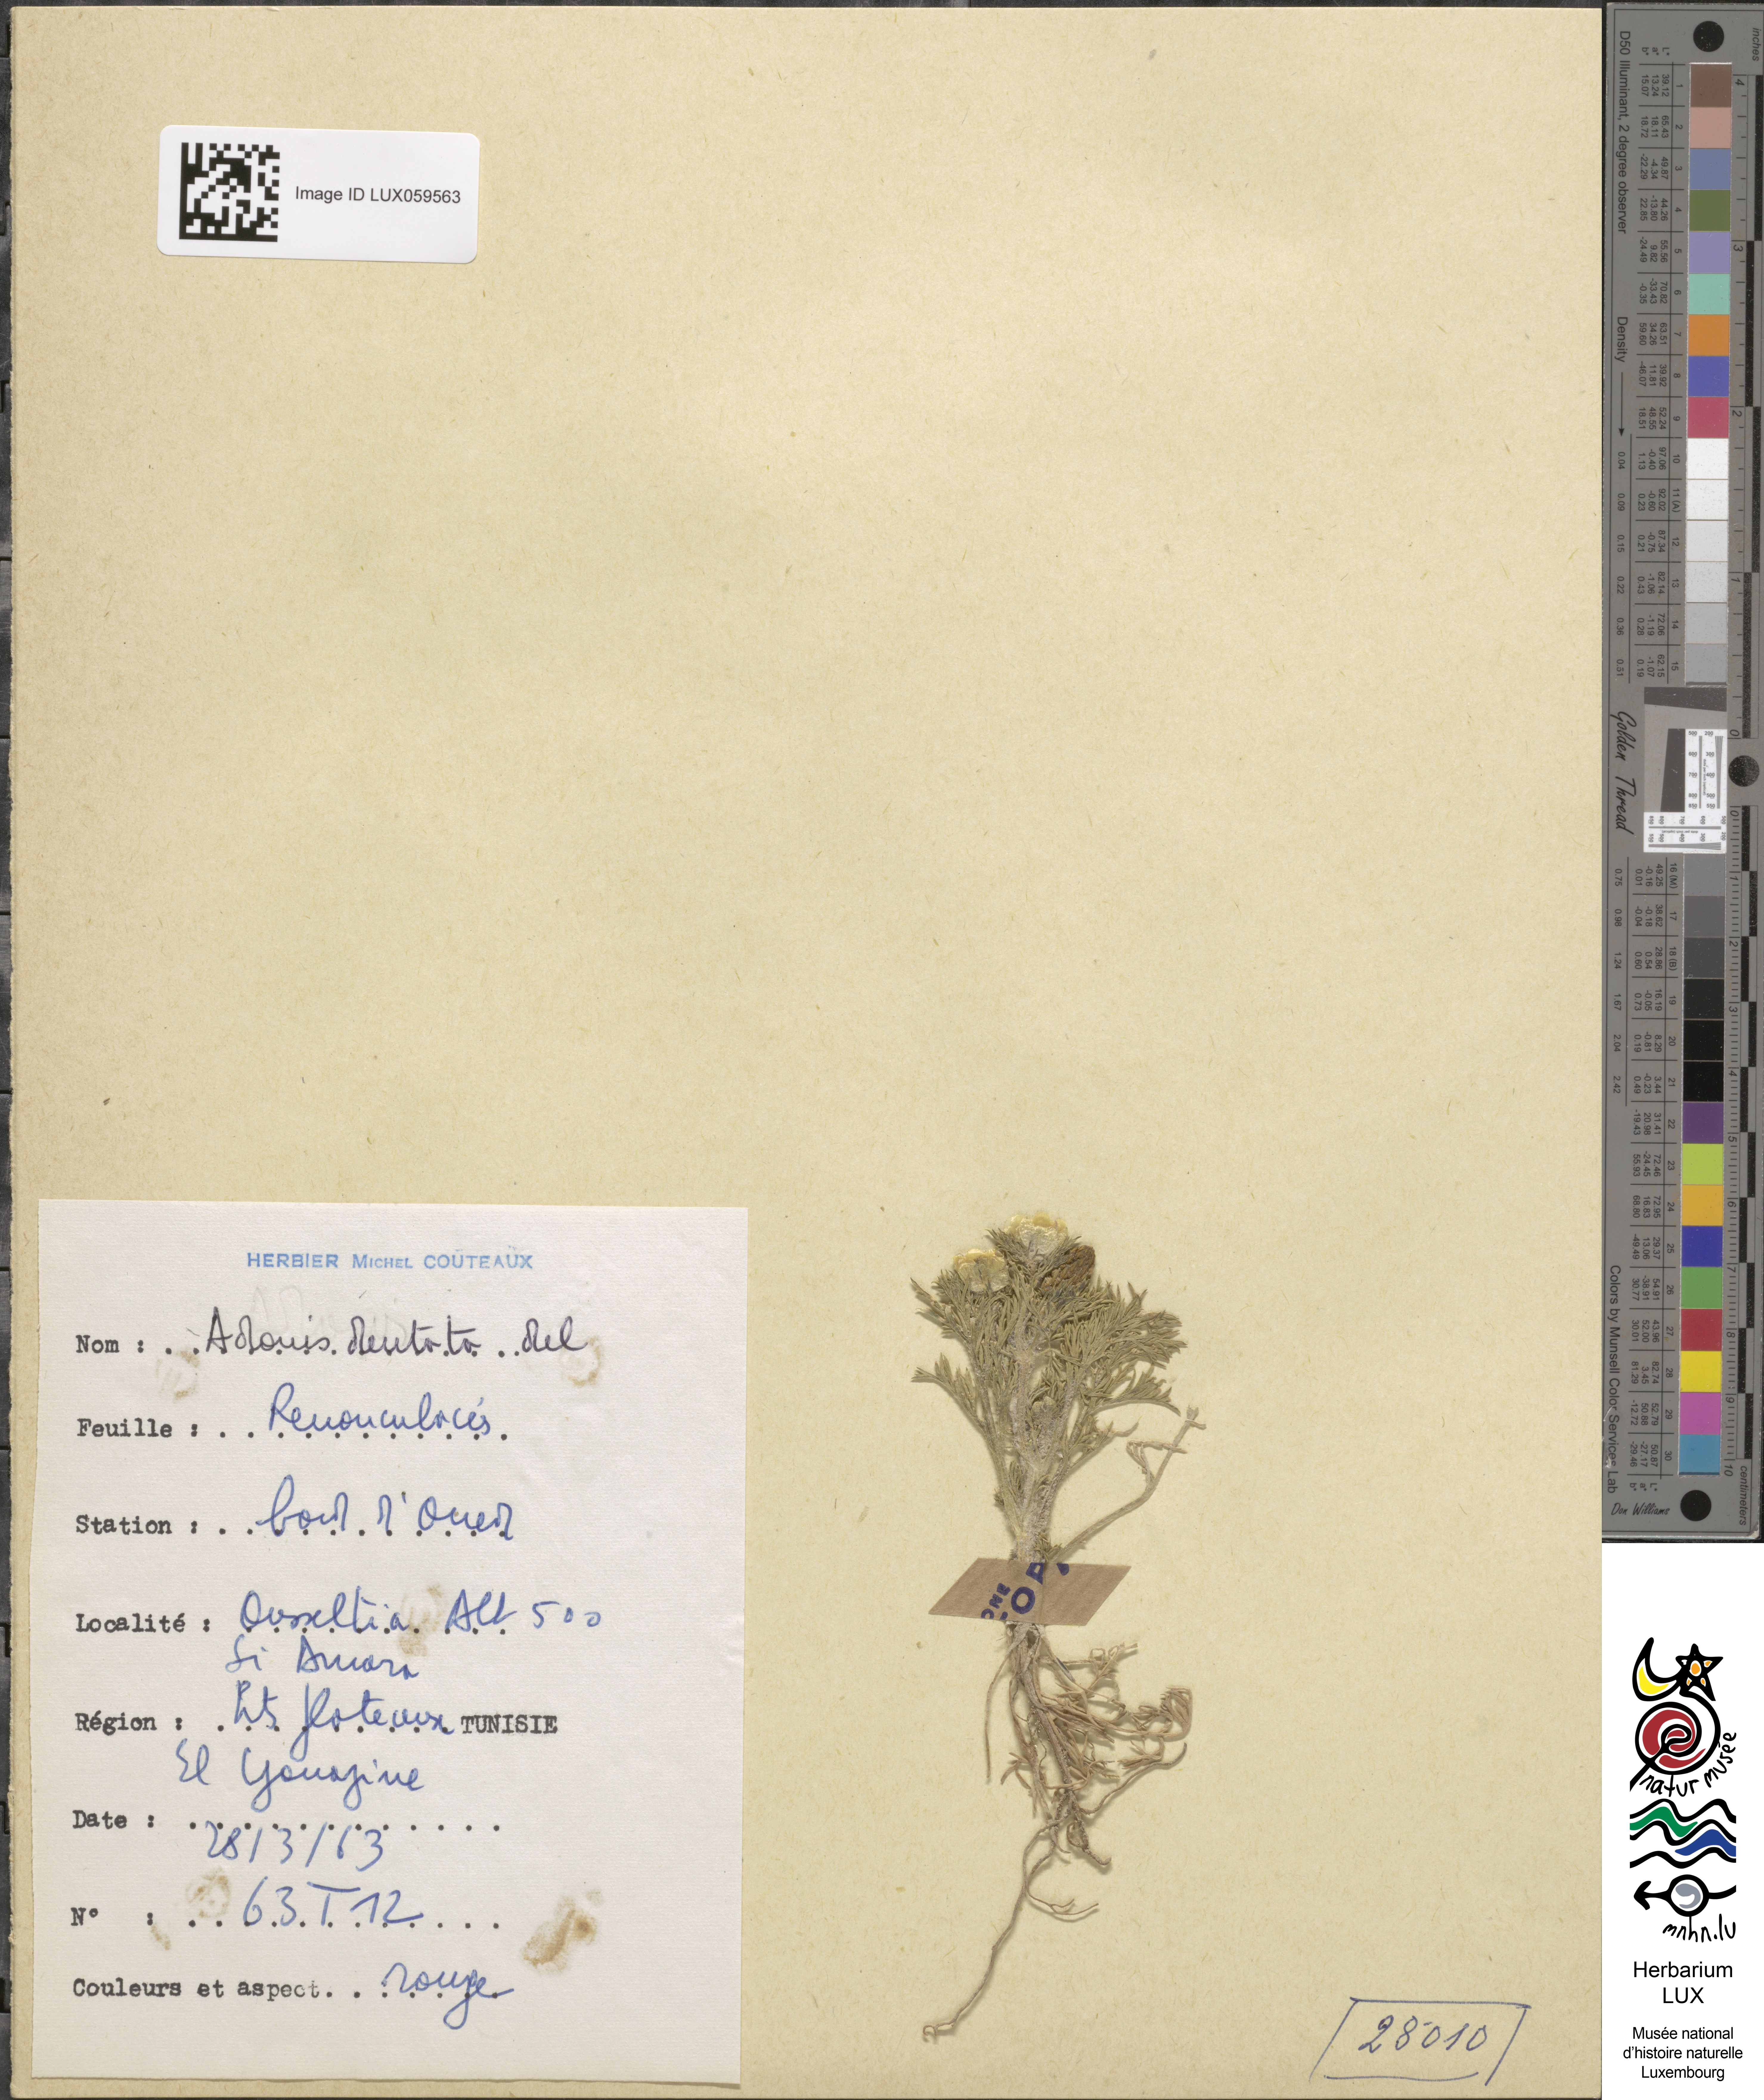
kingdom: Plantae
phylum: Tracheophyta
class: Magnoliopsida
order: Ranunculales
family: Ranunculaceae
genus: Adonis
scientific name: Adonis dentata
